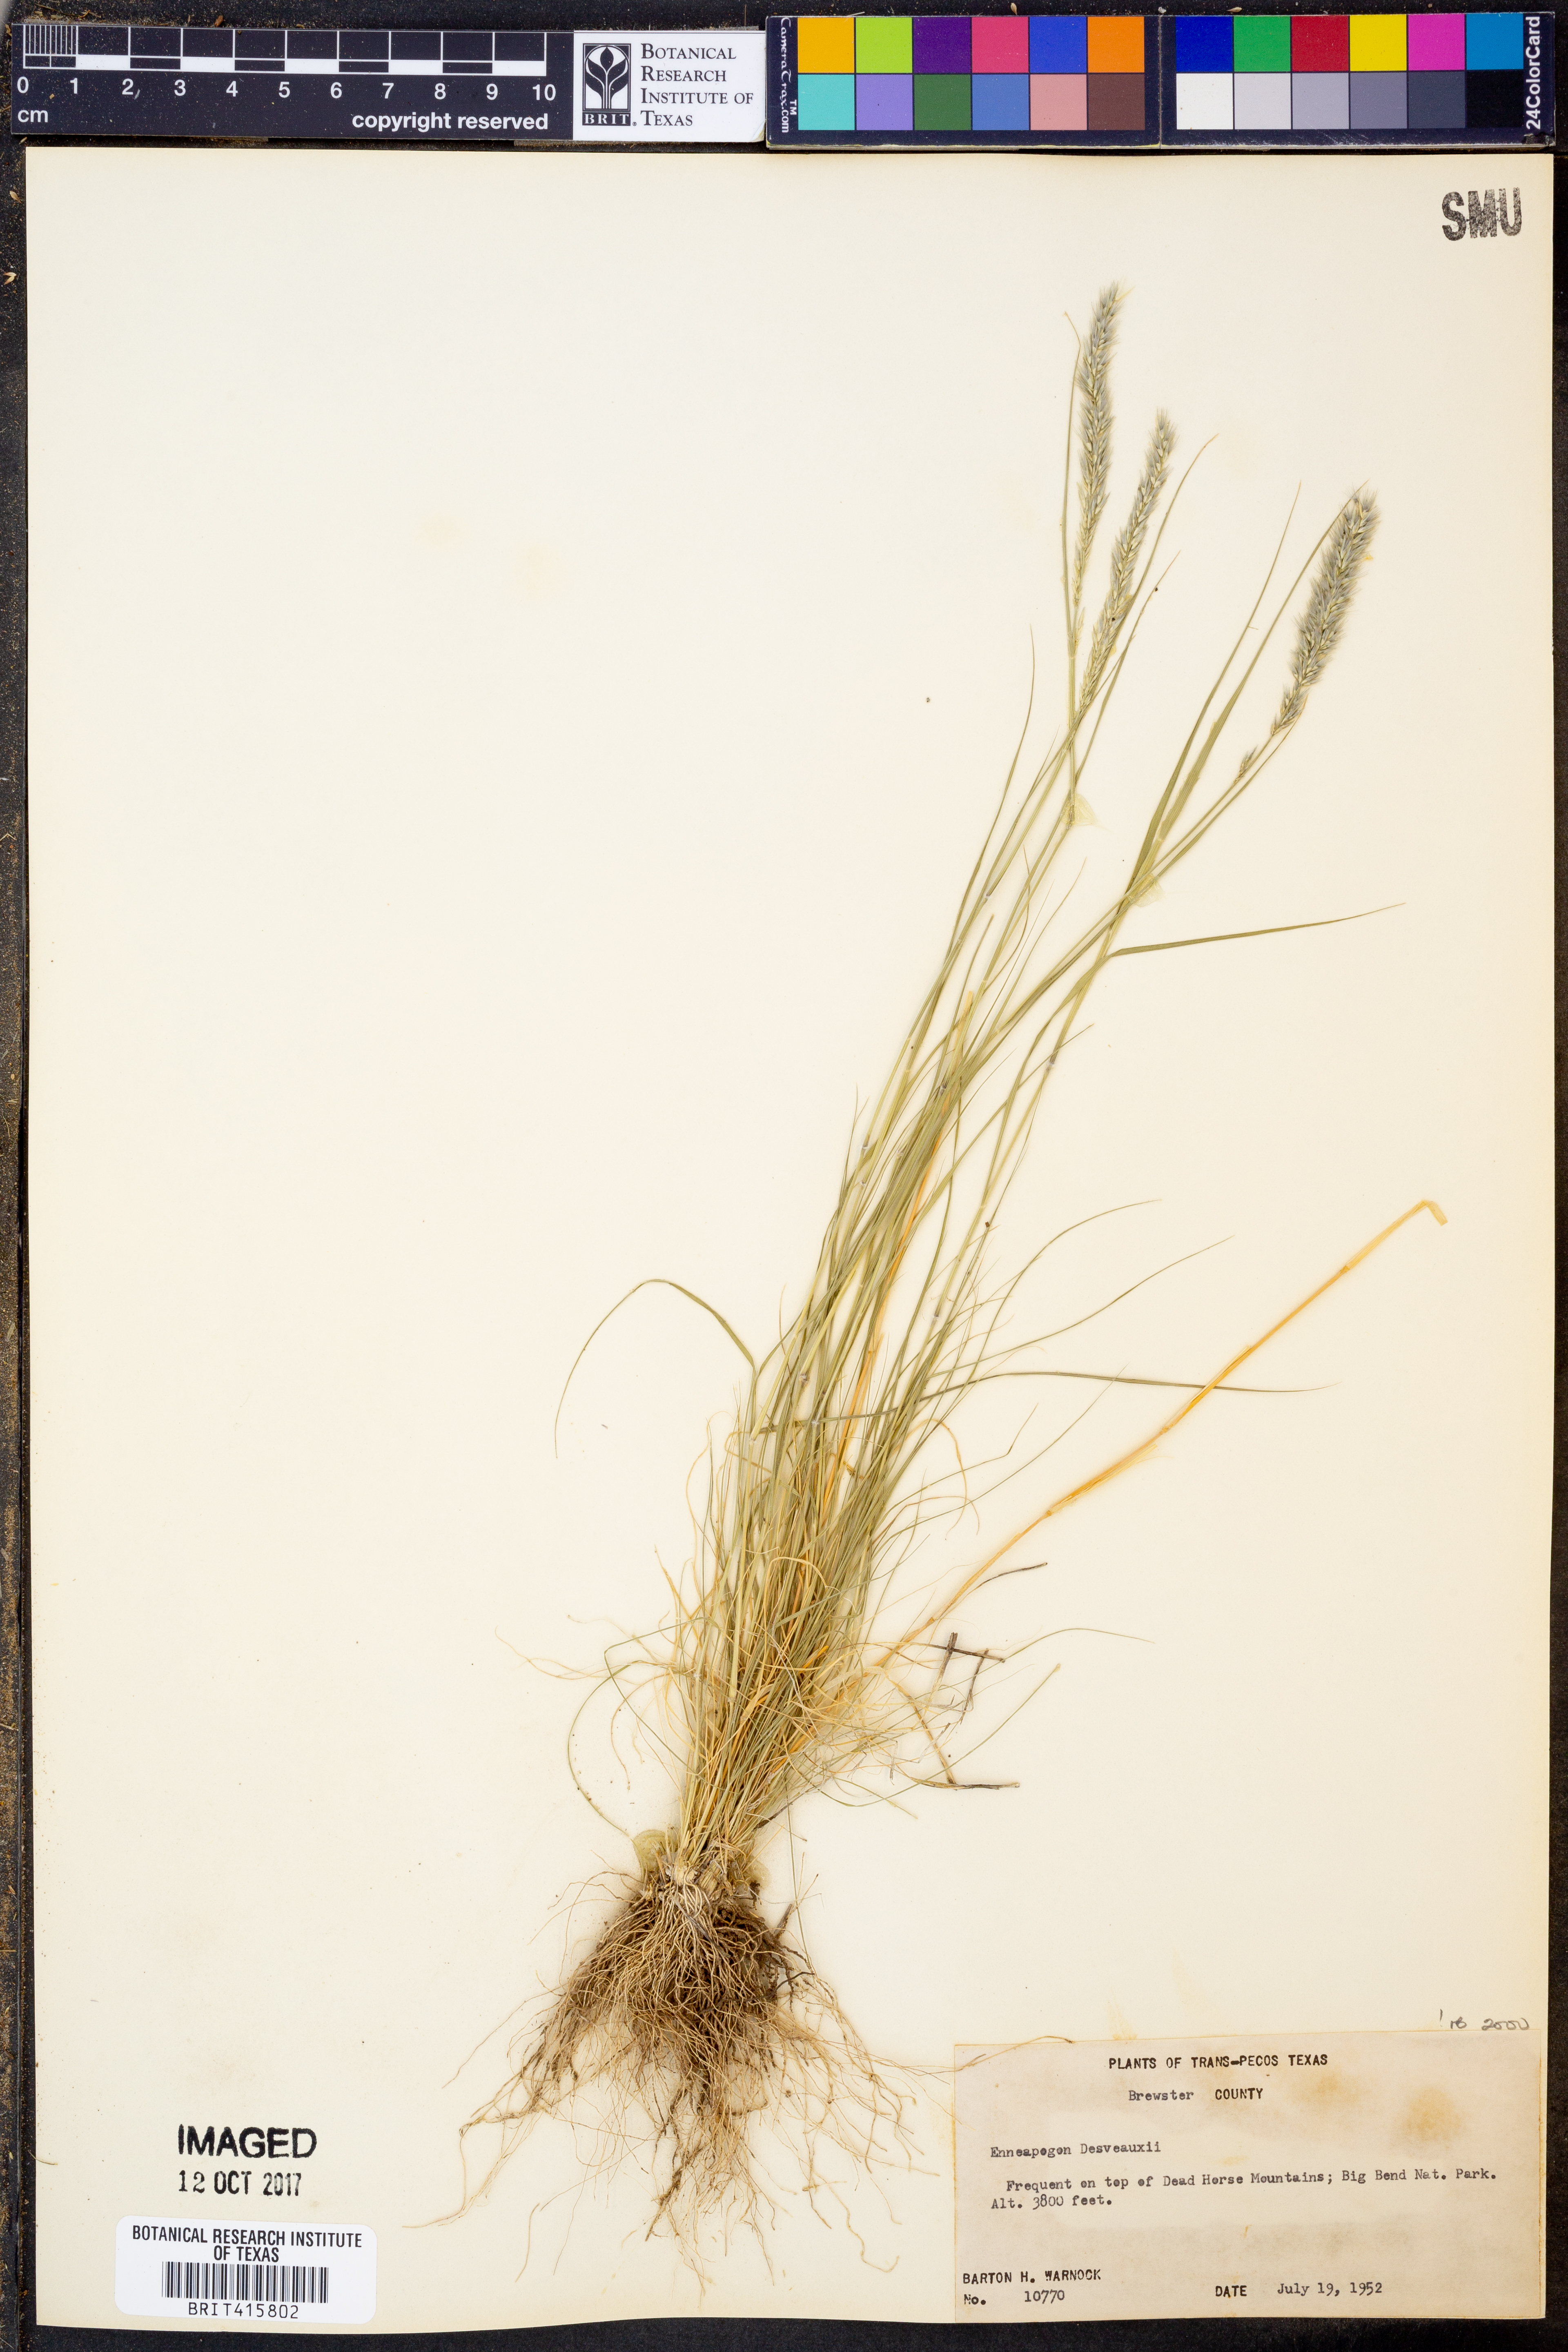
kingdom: Plantae
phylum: Tracheophyta
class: Liliopsida
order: Poales
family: Poaceae
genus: Enneapogon
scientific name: Enneapogon desvauxii
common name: Feather pappus grass
